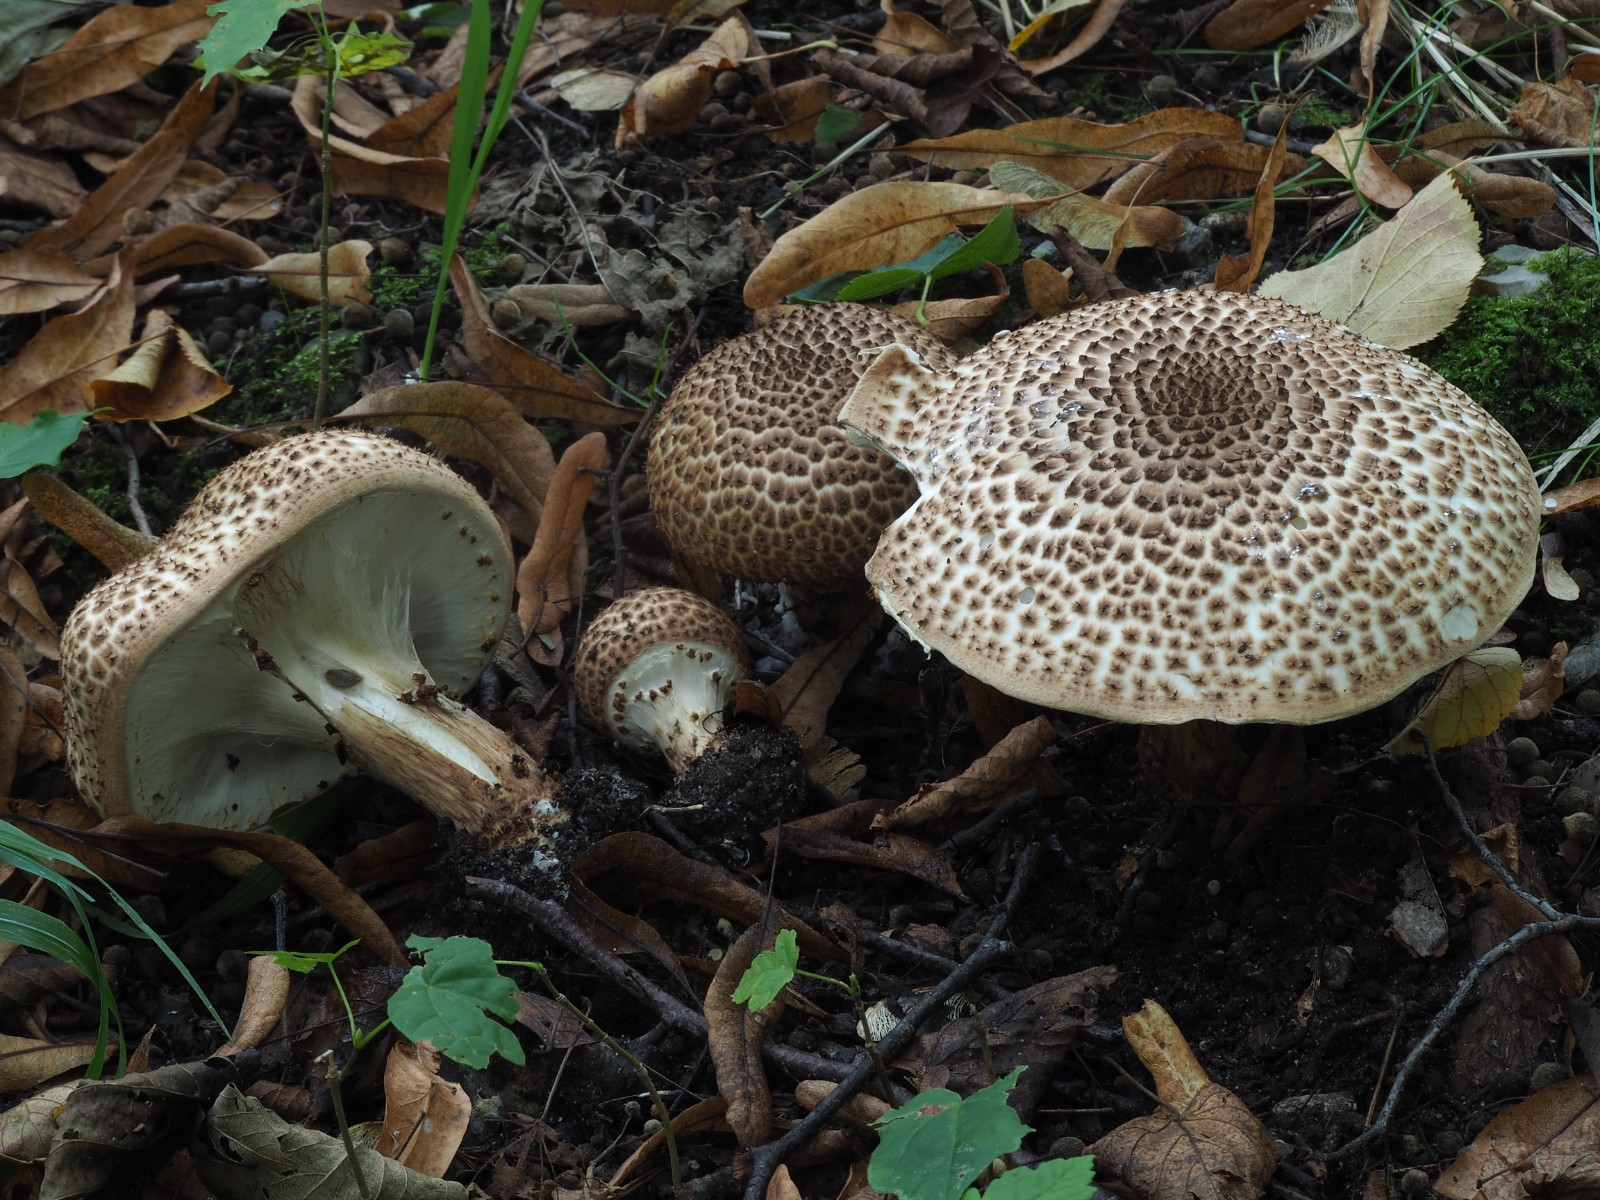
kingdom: Fungi
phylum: Basidiomycota
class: Agaricomycetes
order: Agaricales
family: Agaricaceae
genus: Echinoderma
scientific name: Echinoderma asperum
